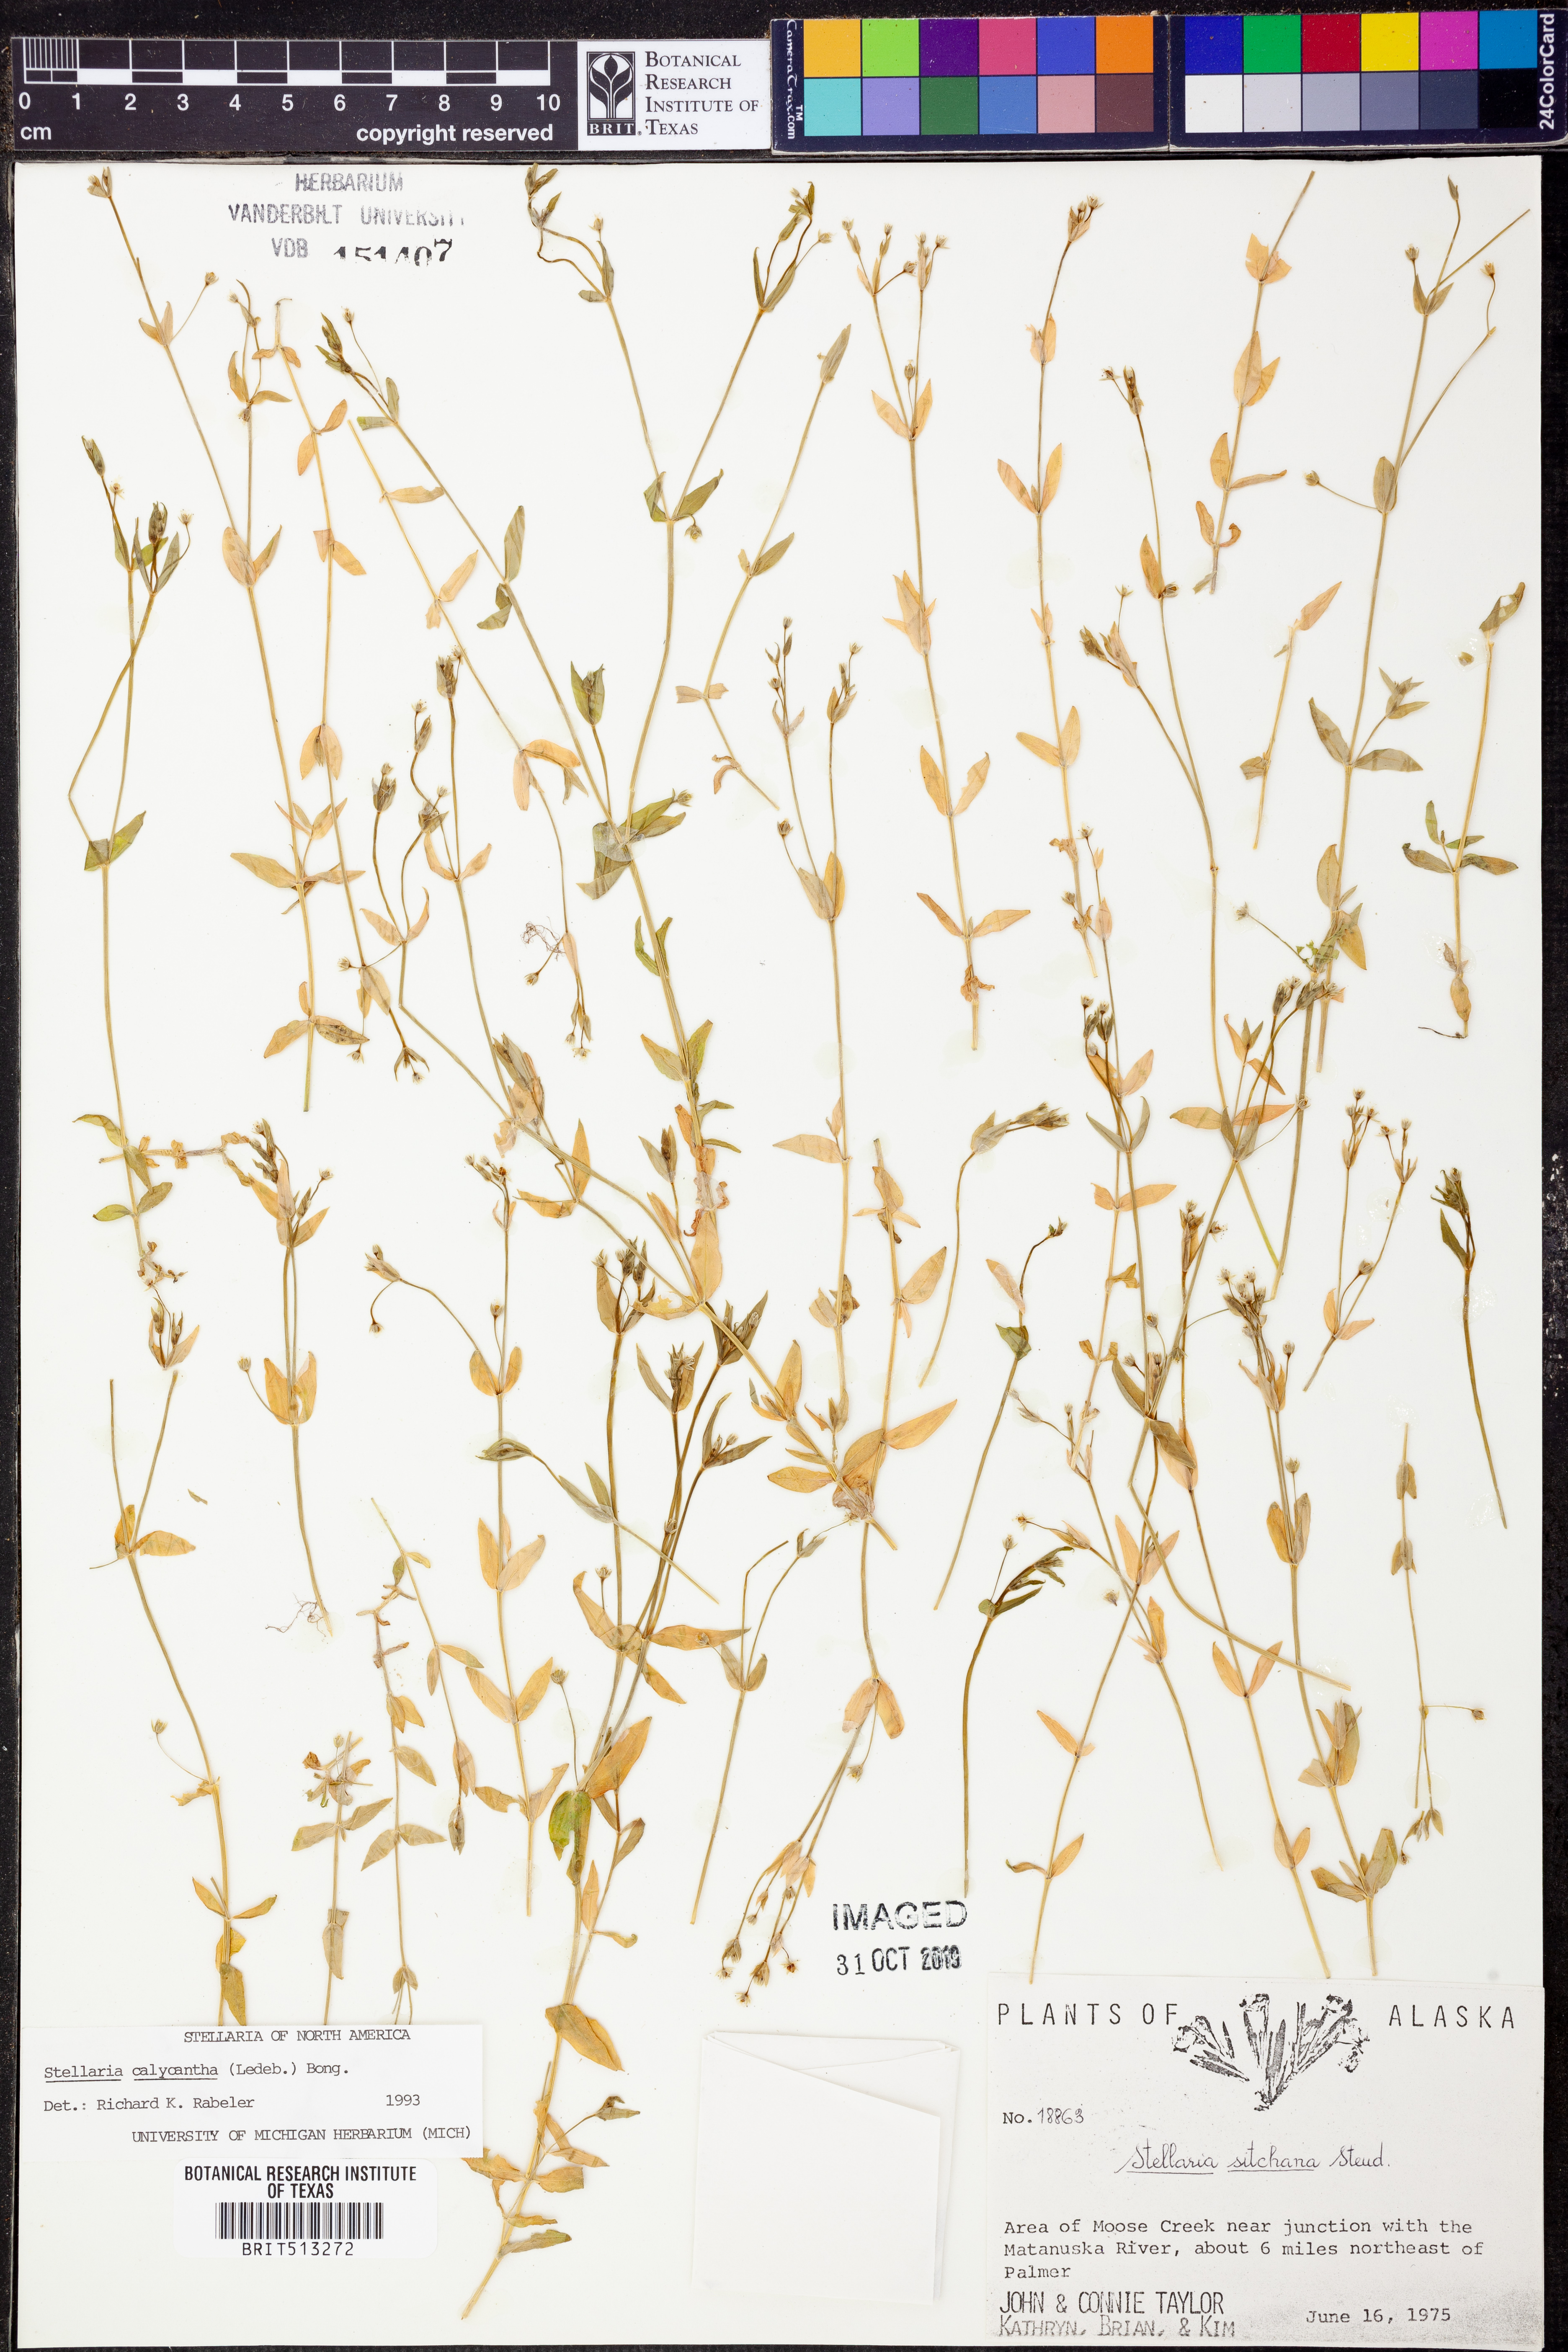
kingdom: Plantae
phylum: Tracheophyta
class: Magnoliopsida
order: Caryophyllales
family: Caryophyllaceae
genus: Stellaria
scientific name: Stellaria calycantha
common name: Northern starwort
